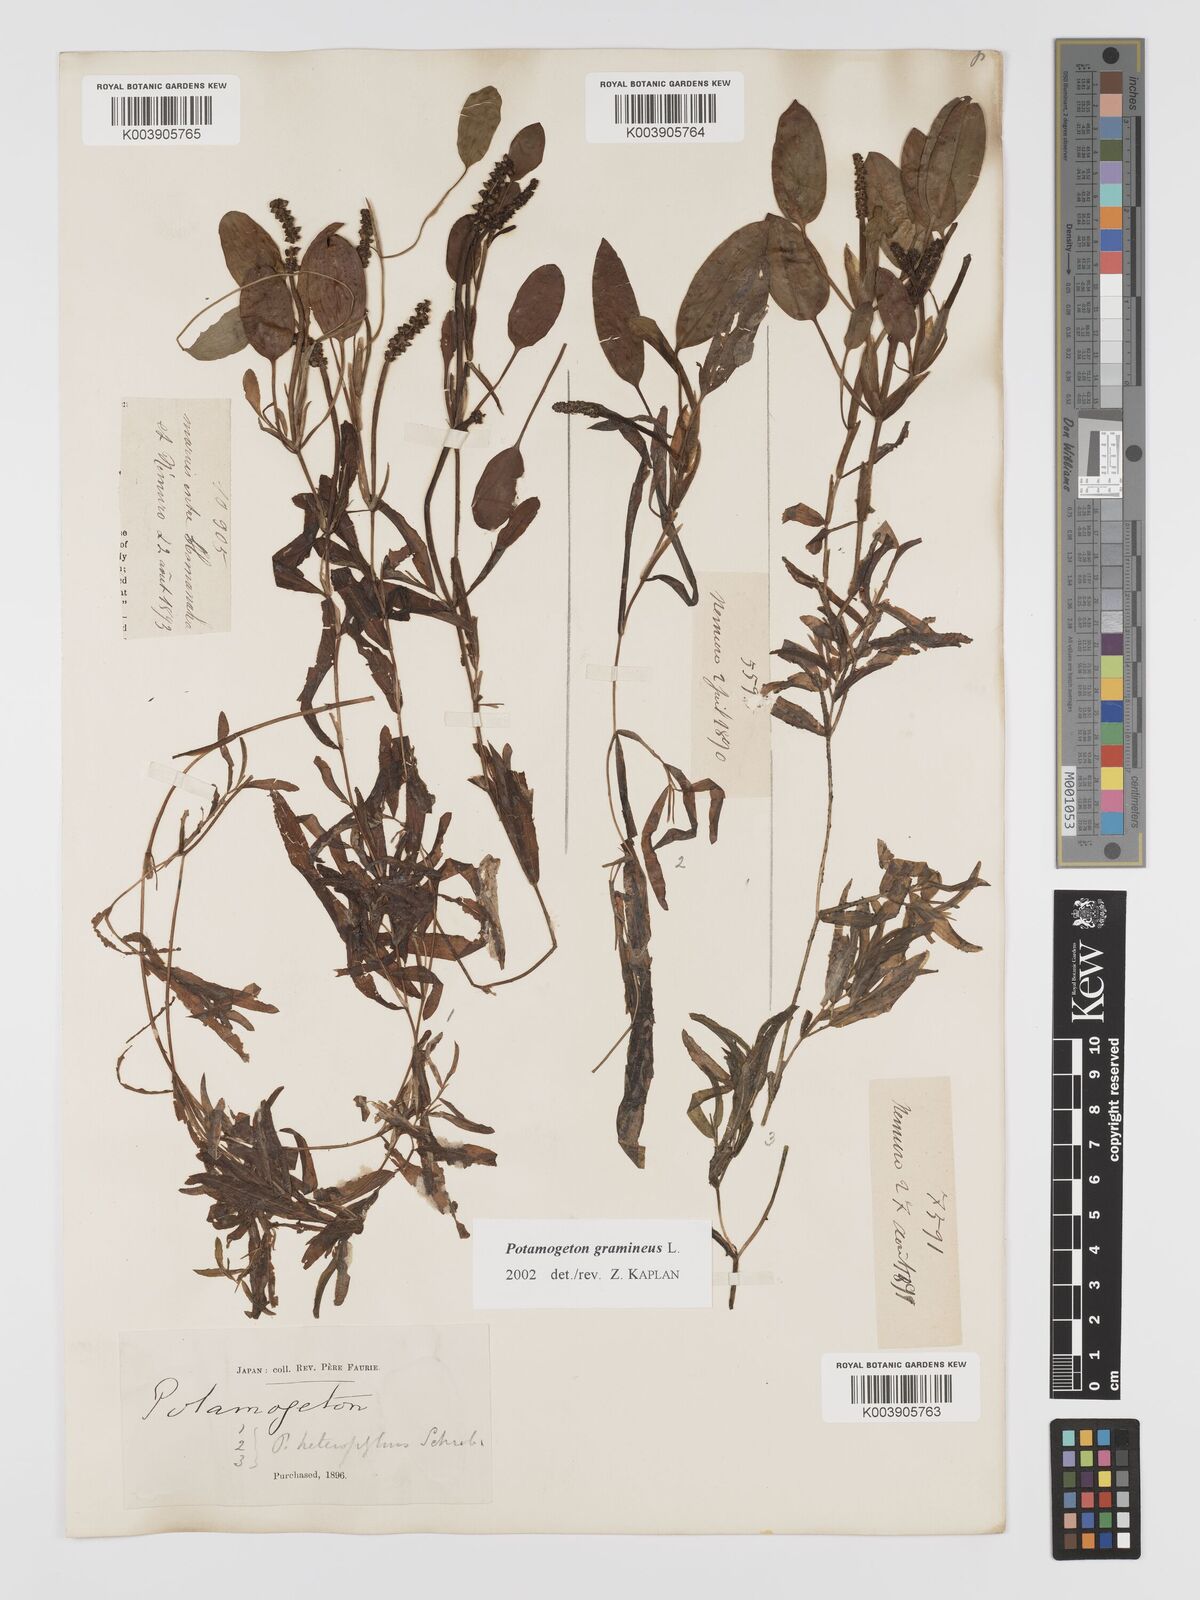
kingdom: Plantae
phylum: Tracheophyta
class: Liliopsida
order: Alismatales
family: Potamogetonaceae
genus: Potamogeton
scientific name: Potamogeton gramineus
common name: Various-leaved pondweed
